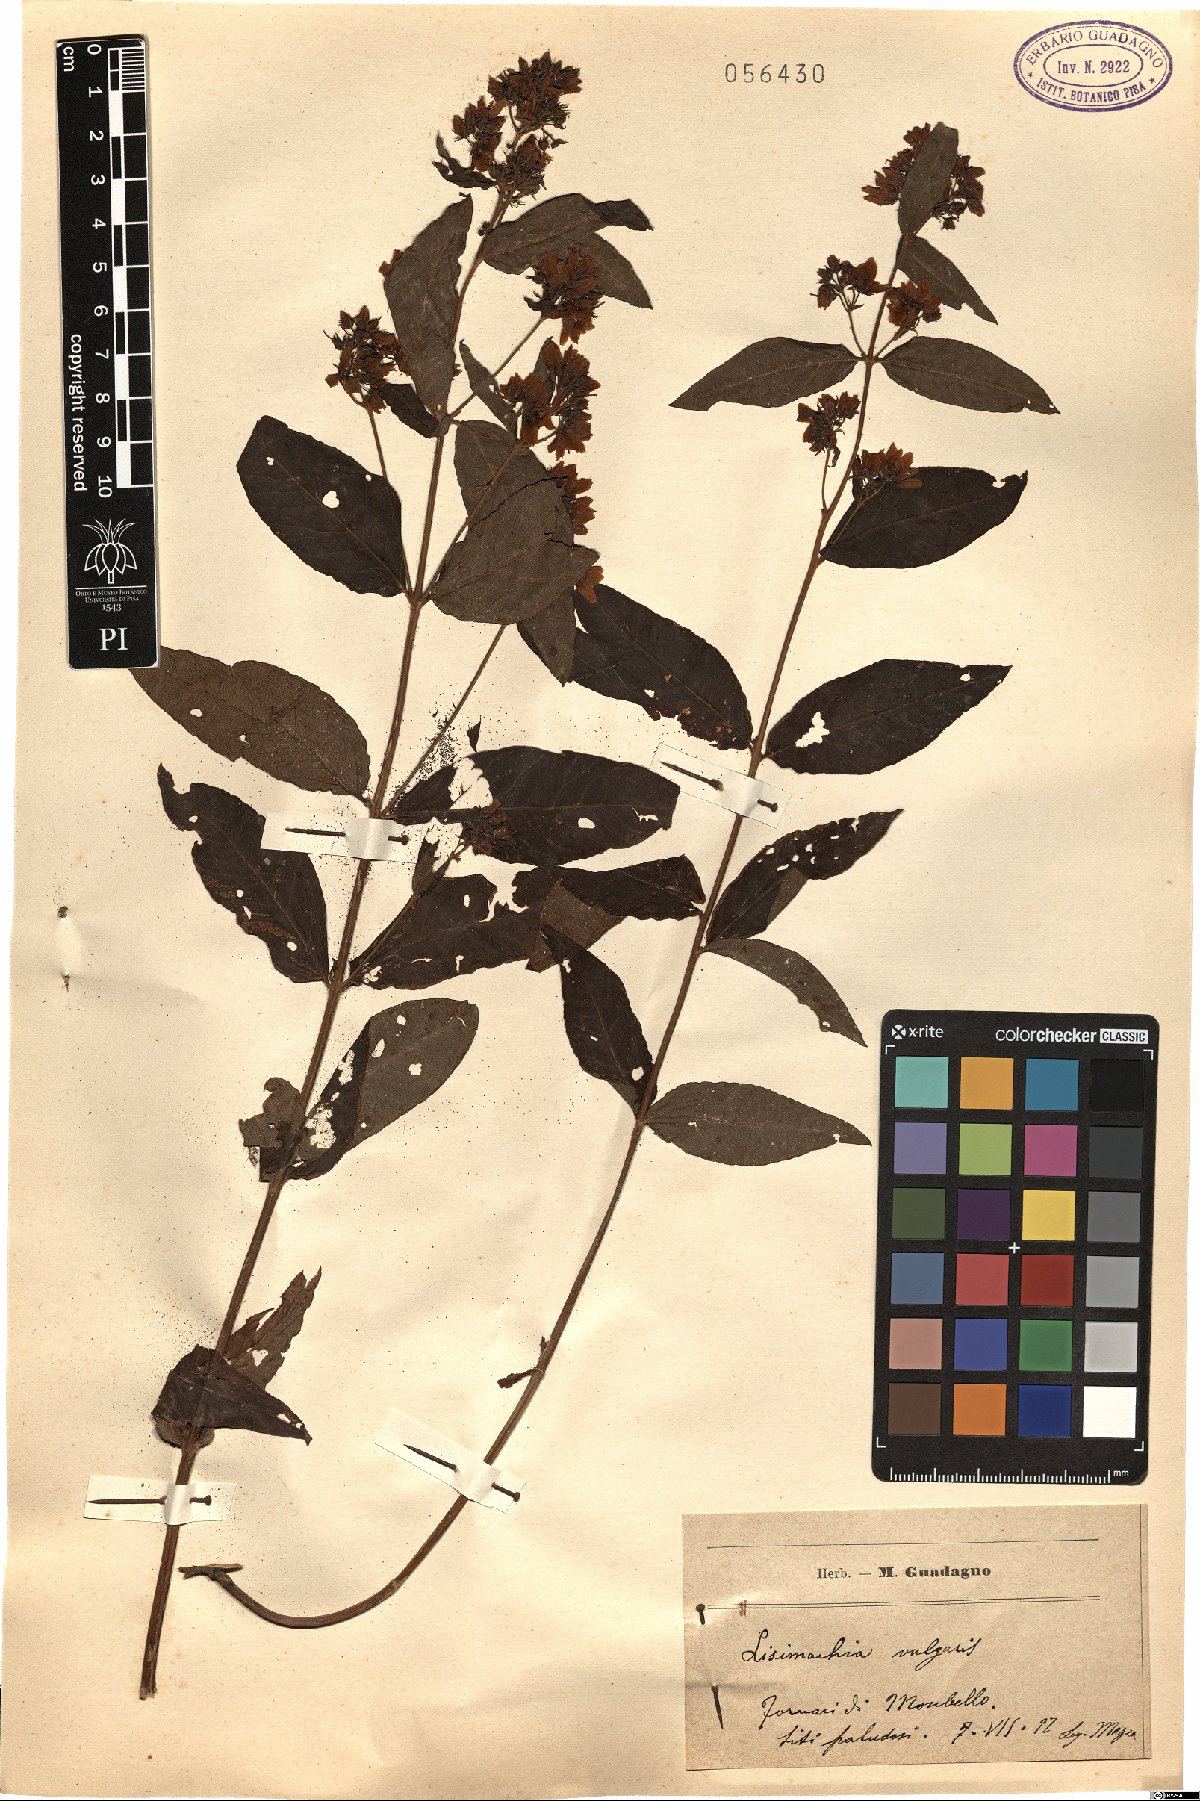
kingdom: Plantae
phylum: Tracheophyta
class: Magnoliopsida
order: Ericales
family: Primulaceae
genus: Lysimachia
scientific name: Lysimachia vulgaris
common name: Yellow loosestrife
